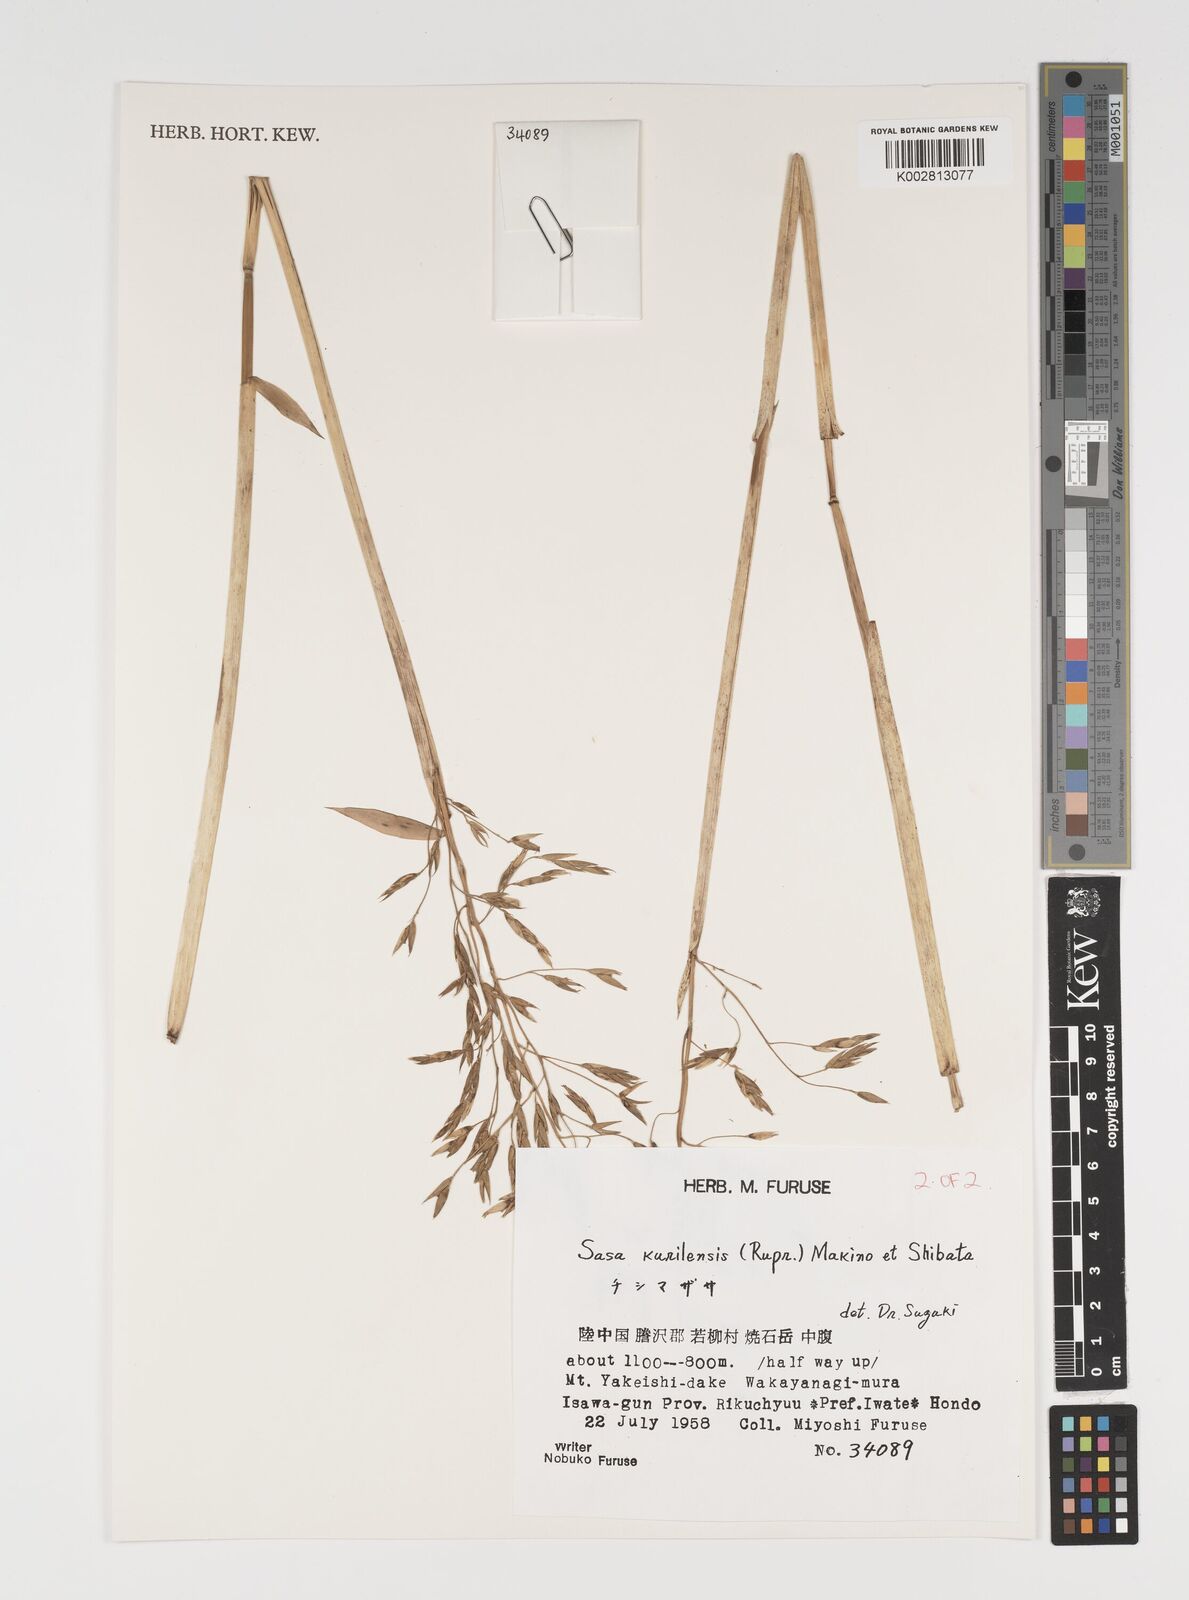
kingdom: Plantae
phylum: Tracheophyta
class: Liliopsida
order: Poales
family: Poaceae
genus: Sasa
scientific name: Sasa kurilensis
